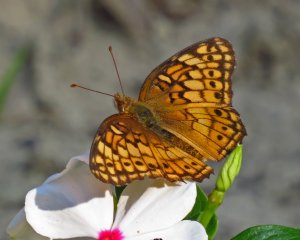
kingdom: Animalia
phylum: Arthropoda
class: Insecta
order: Lepidoptera
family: Nymphalidae
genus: Euptoieta
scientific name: Euptoieta claudia
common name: Variegated Fritillary
